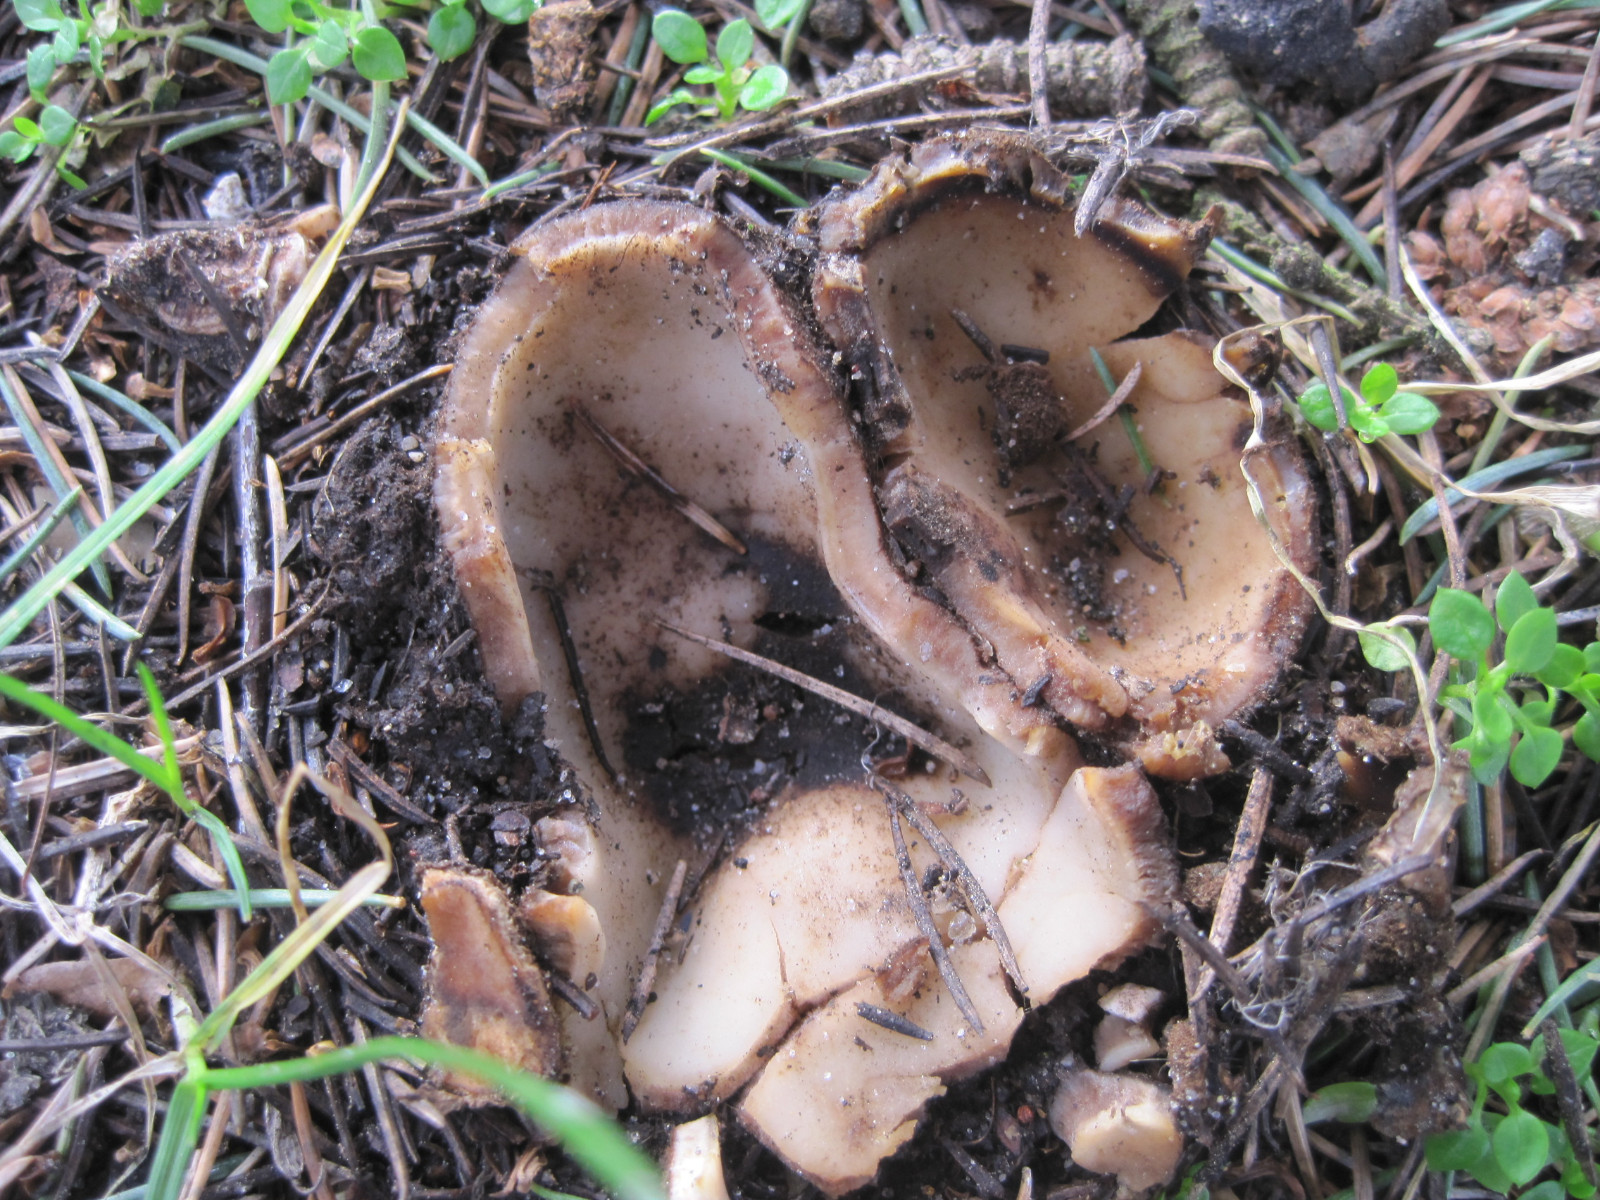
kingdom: Fungi
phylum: Ascomycota
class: Pezizomycetes
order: Pezizales
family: Pyronemataceae
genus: Geopora
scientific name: Geopora sumneriana
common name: vår-jordbæger
